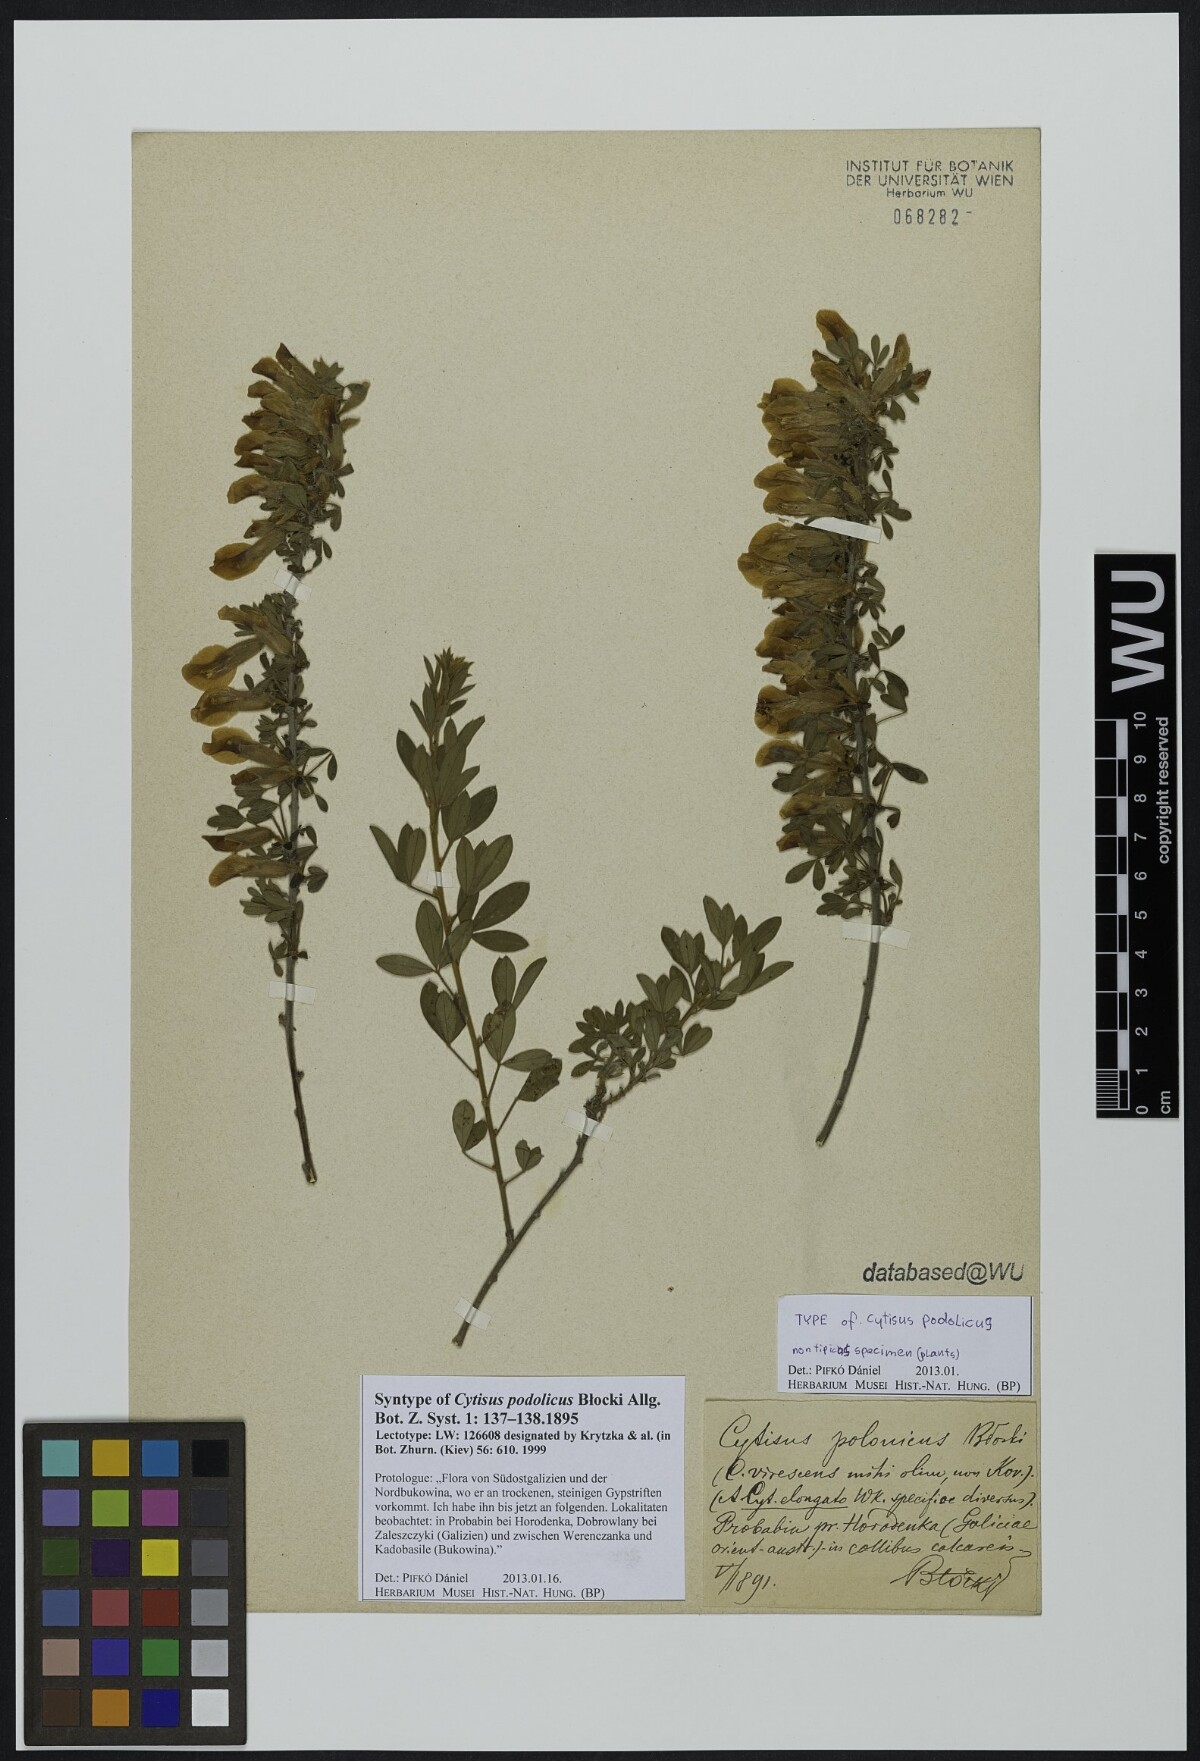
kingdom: Plantae
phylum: Tracheophyta
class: Magnoliopsida
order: Fabales
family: Fabaceae
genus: Chamaecytisus
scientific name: Chamaecytisus podolicus
